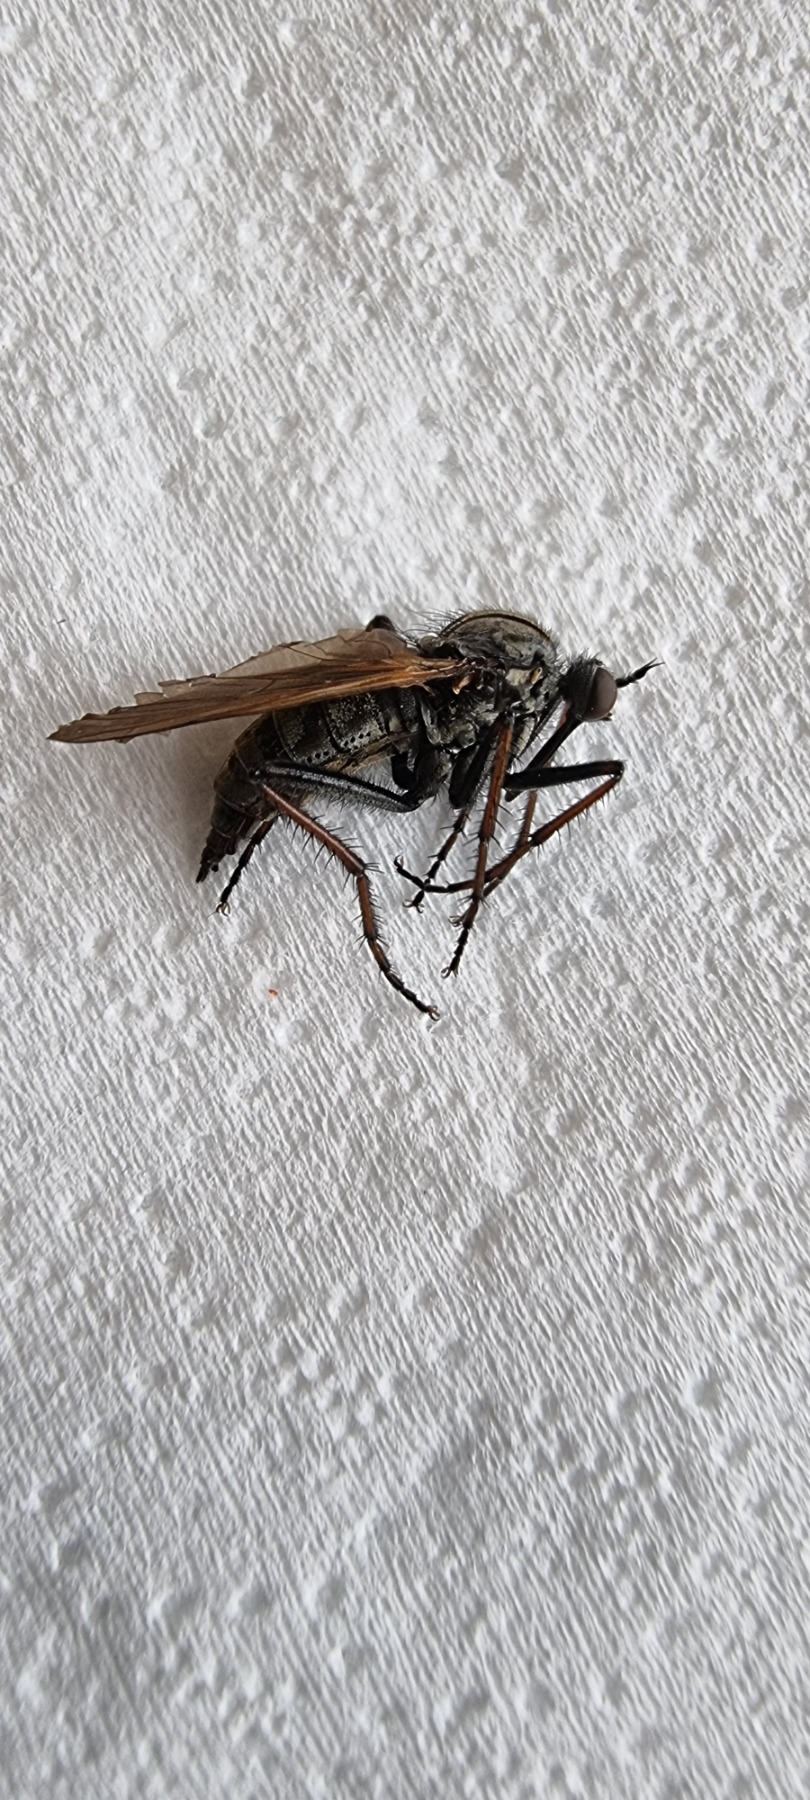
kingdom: Animalia
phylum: Arthropoda
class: Insecta
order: Diptera
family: Empididae
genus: Empis
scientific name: Empis tessellata
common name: Stor danseflue
